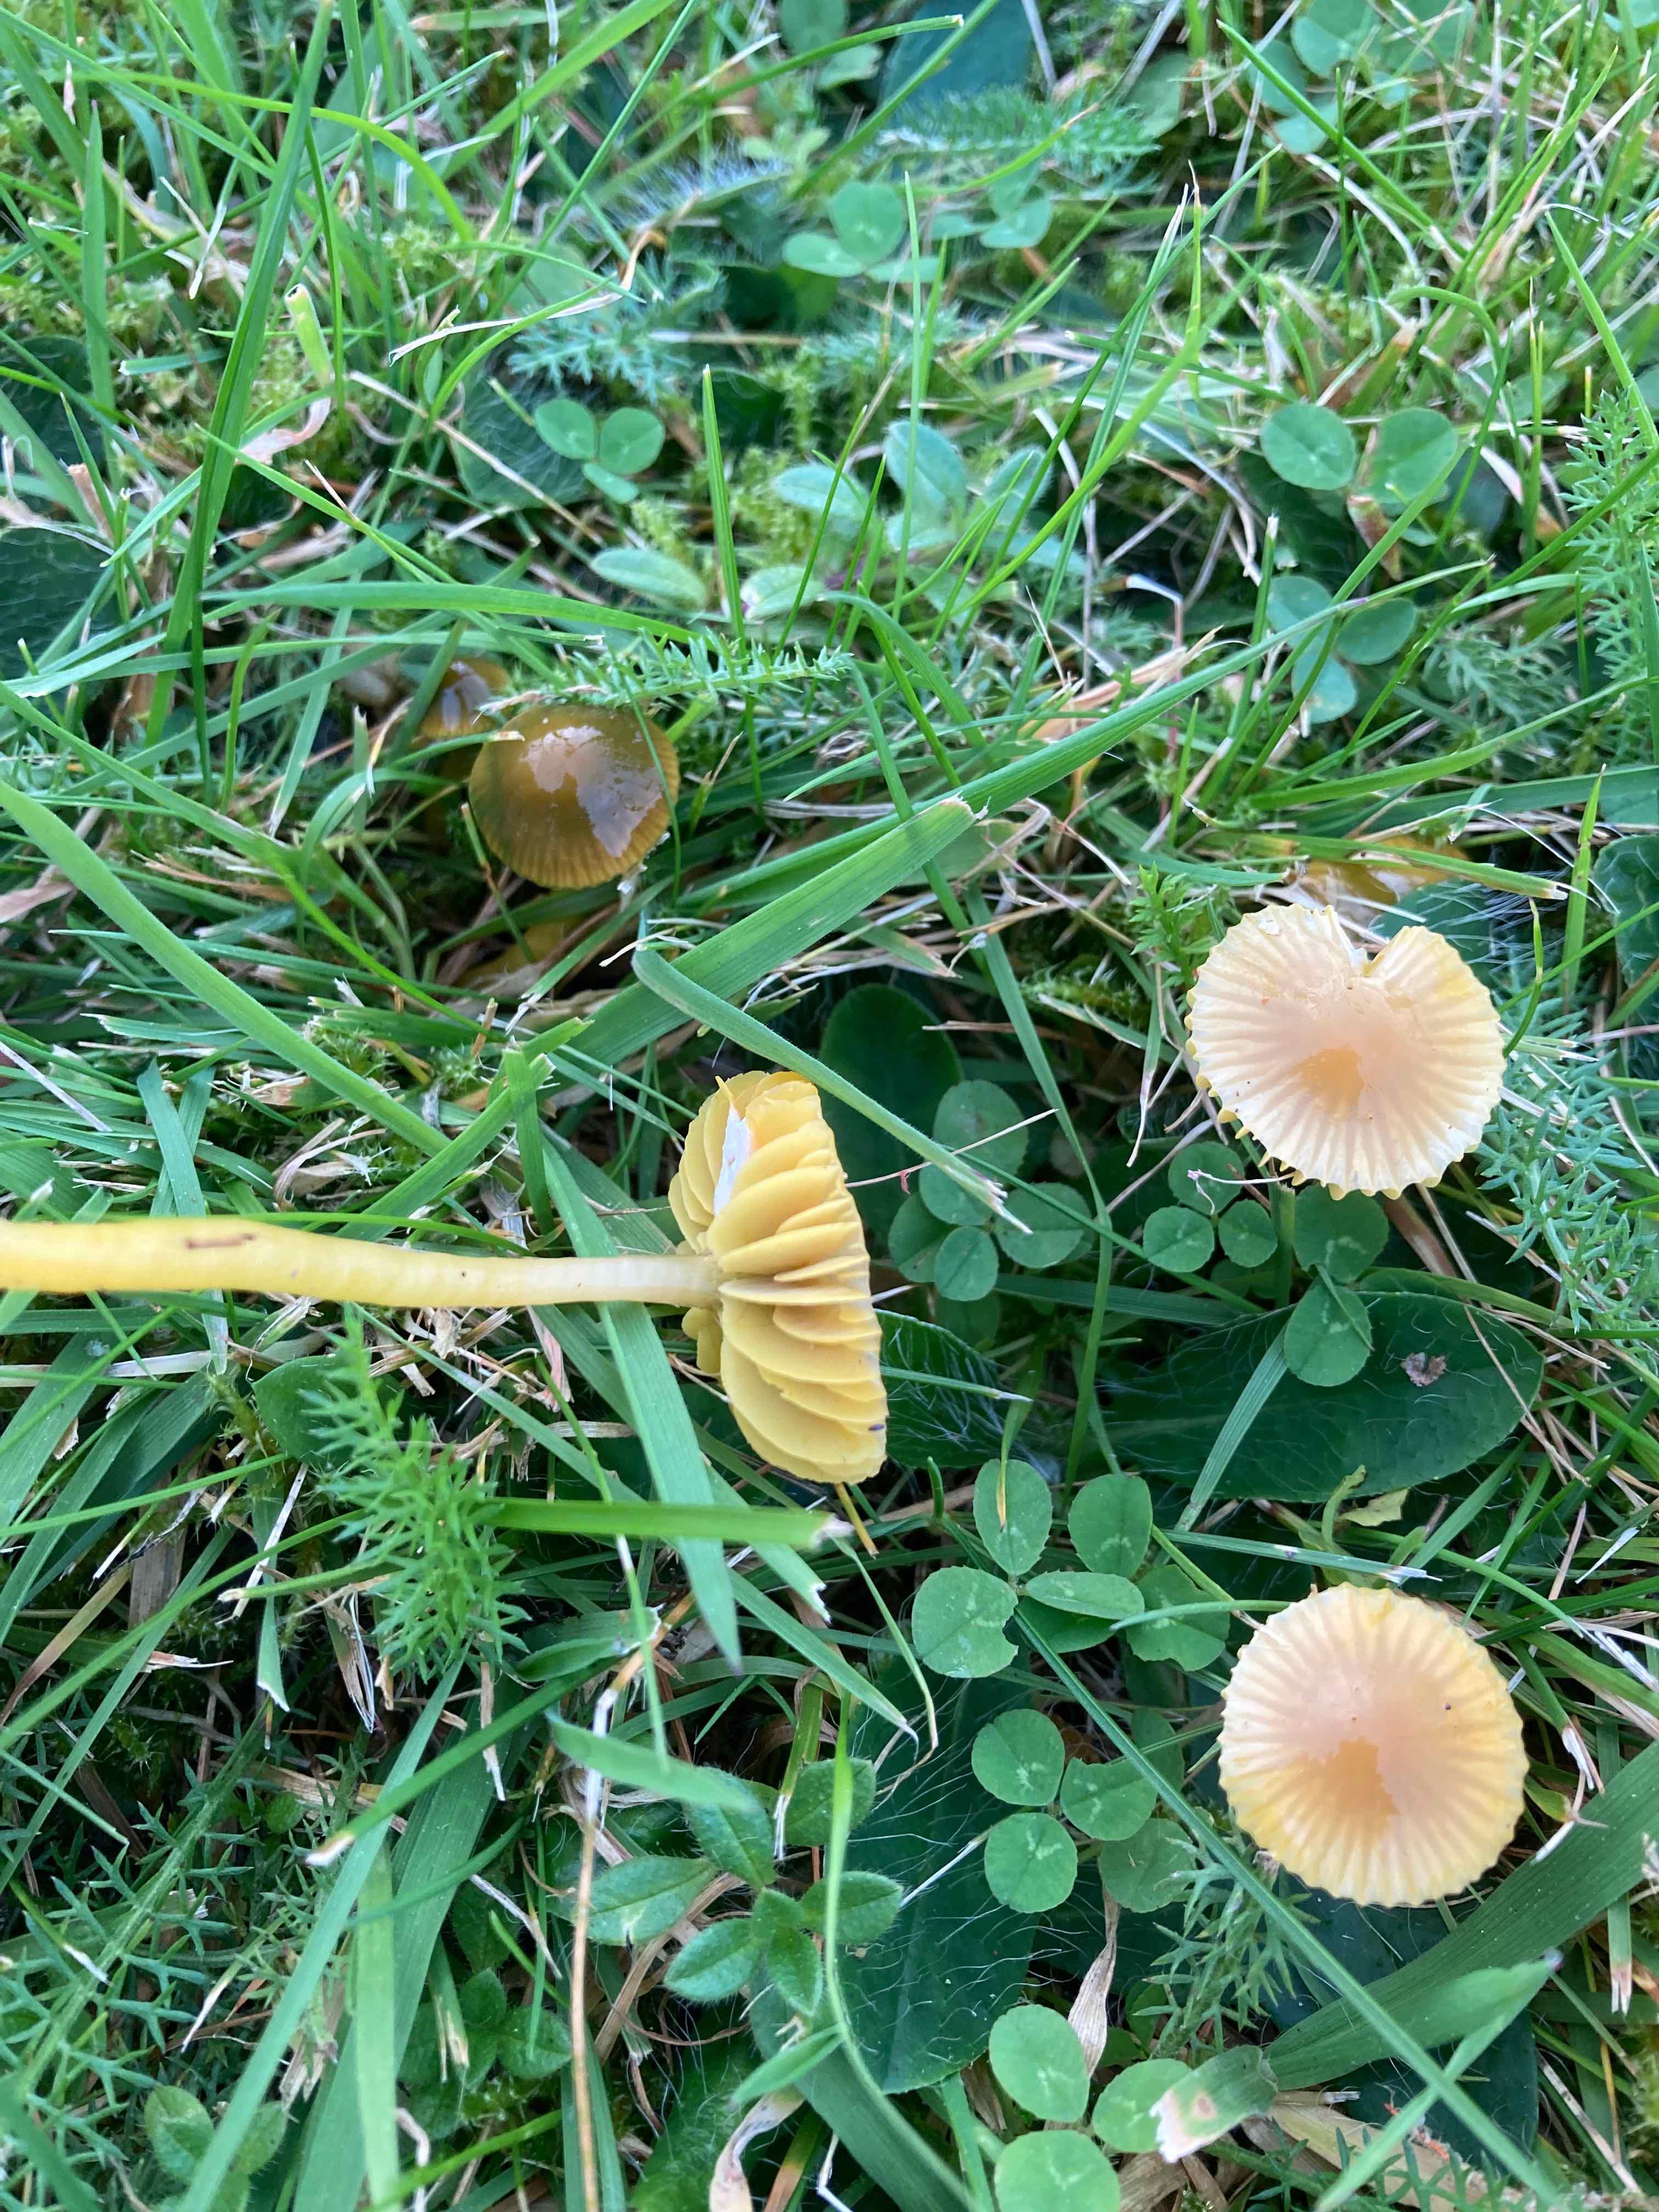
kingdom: Fungi
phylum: Basidiomycota
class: Agaricomycetes
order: Agaricales
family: Hygrophoraceae
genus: Gliophorus
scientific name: Gliophorus psittacinus
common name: papegøje-vokshat
